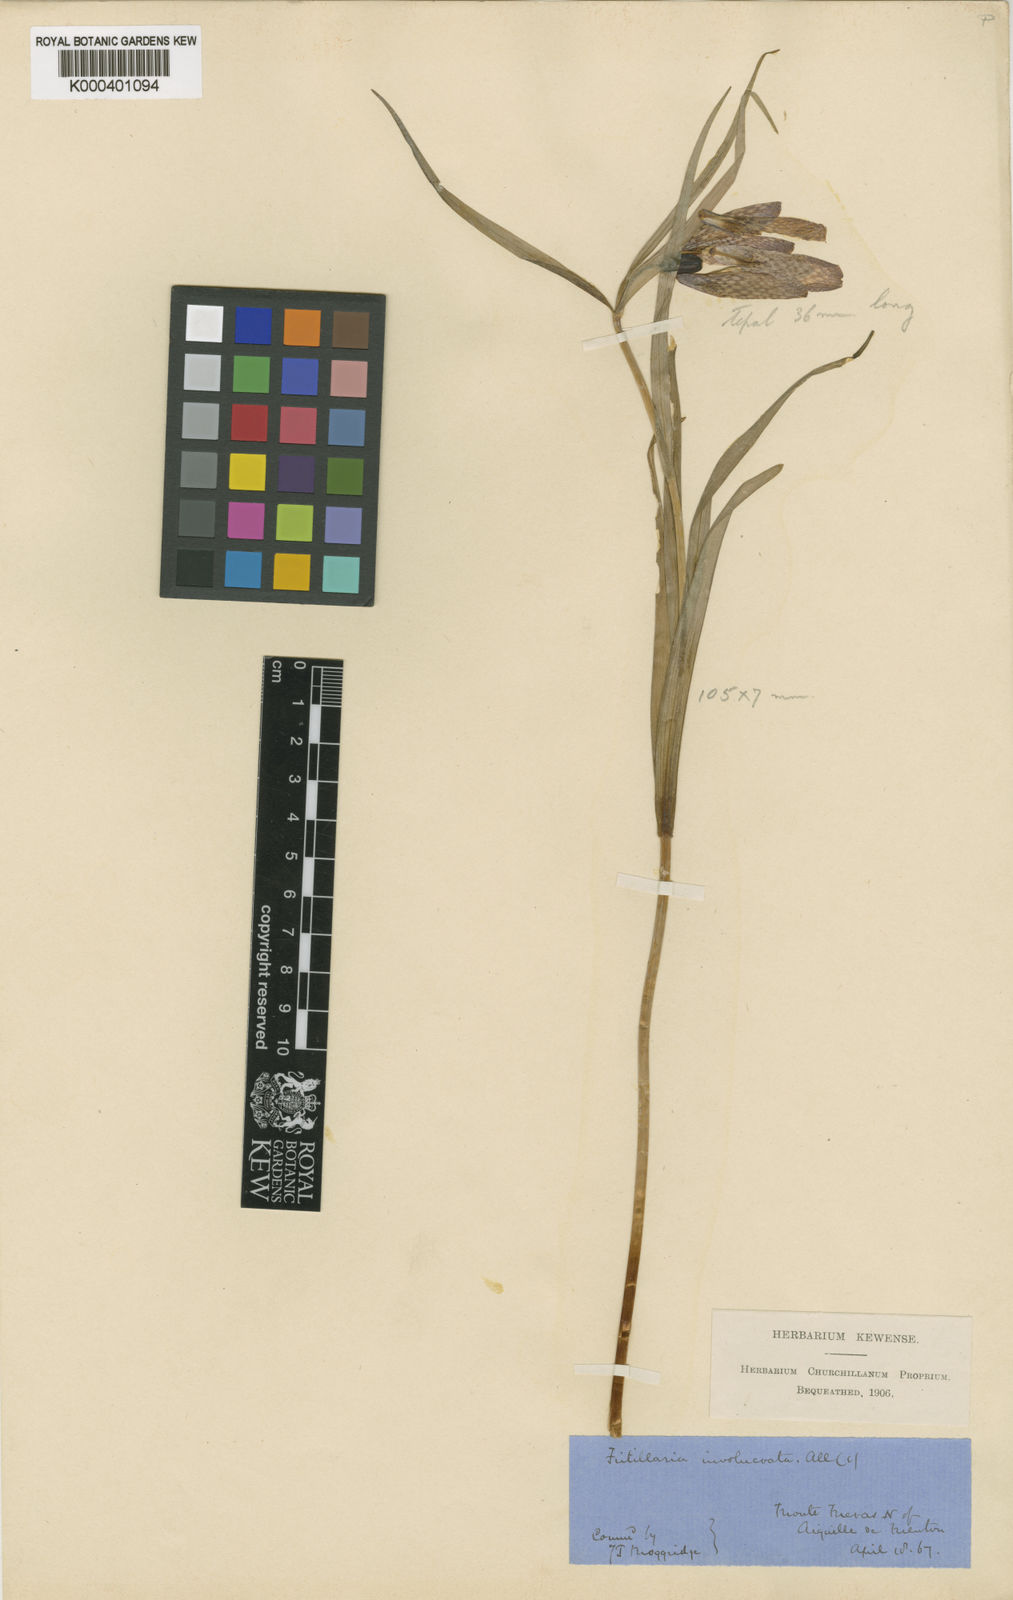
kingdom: Plantae
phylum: Tracheophyta
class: Liliopsida
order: Liliales
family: Liliaceae
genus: Fritillaria
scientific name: Fritillaria involucrata
